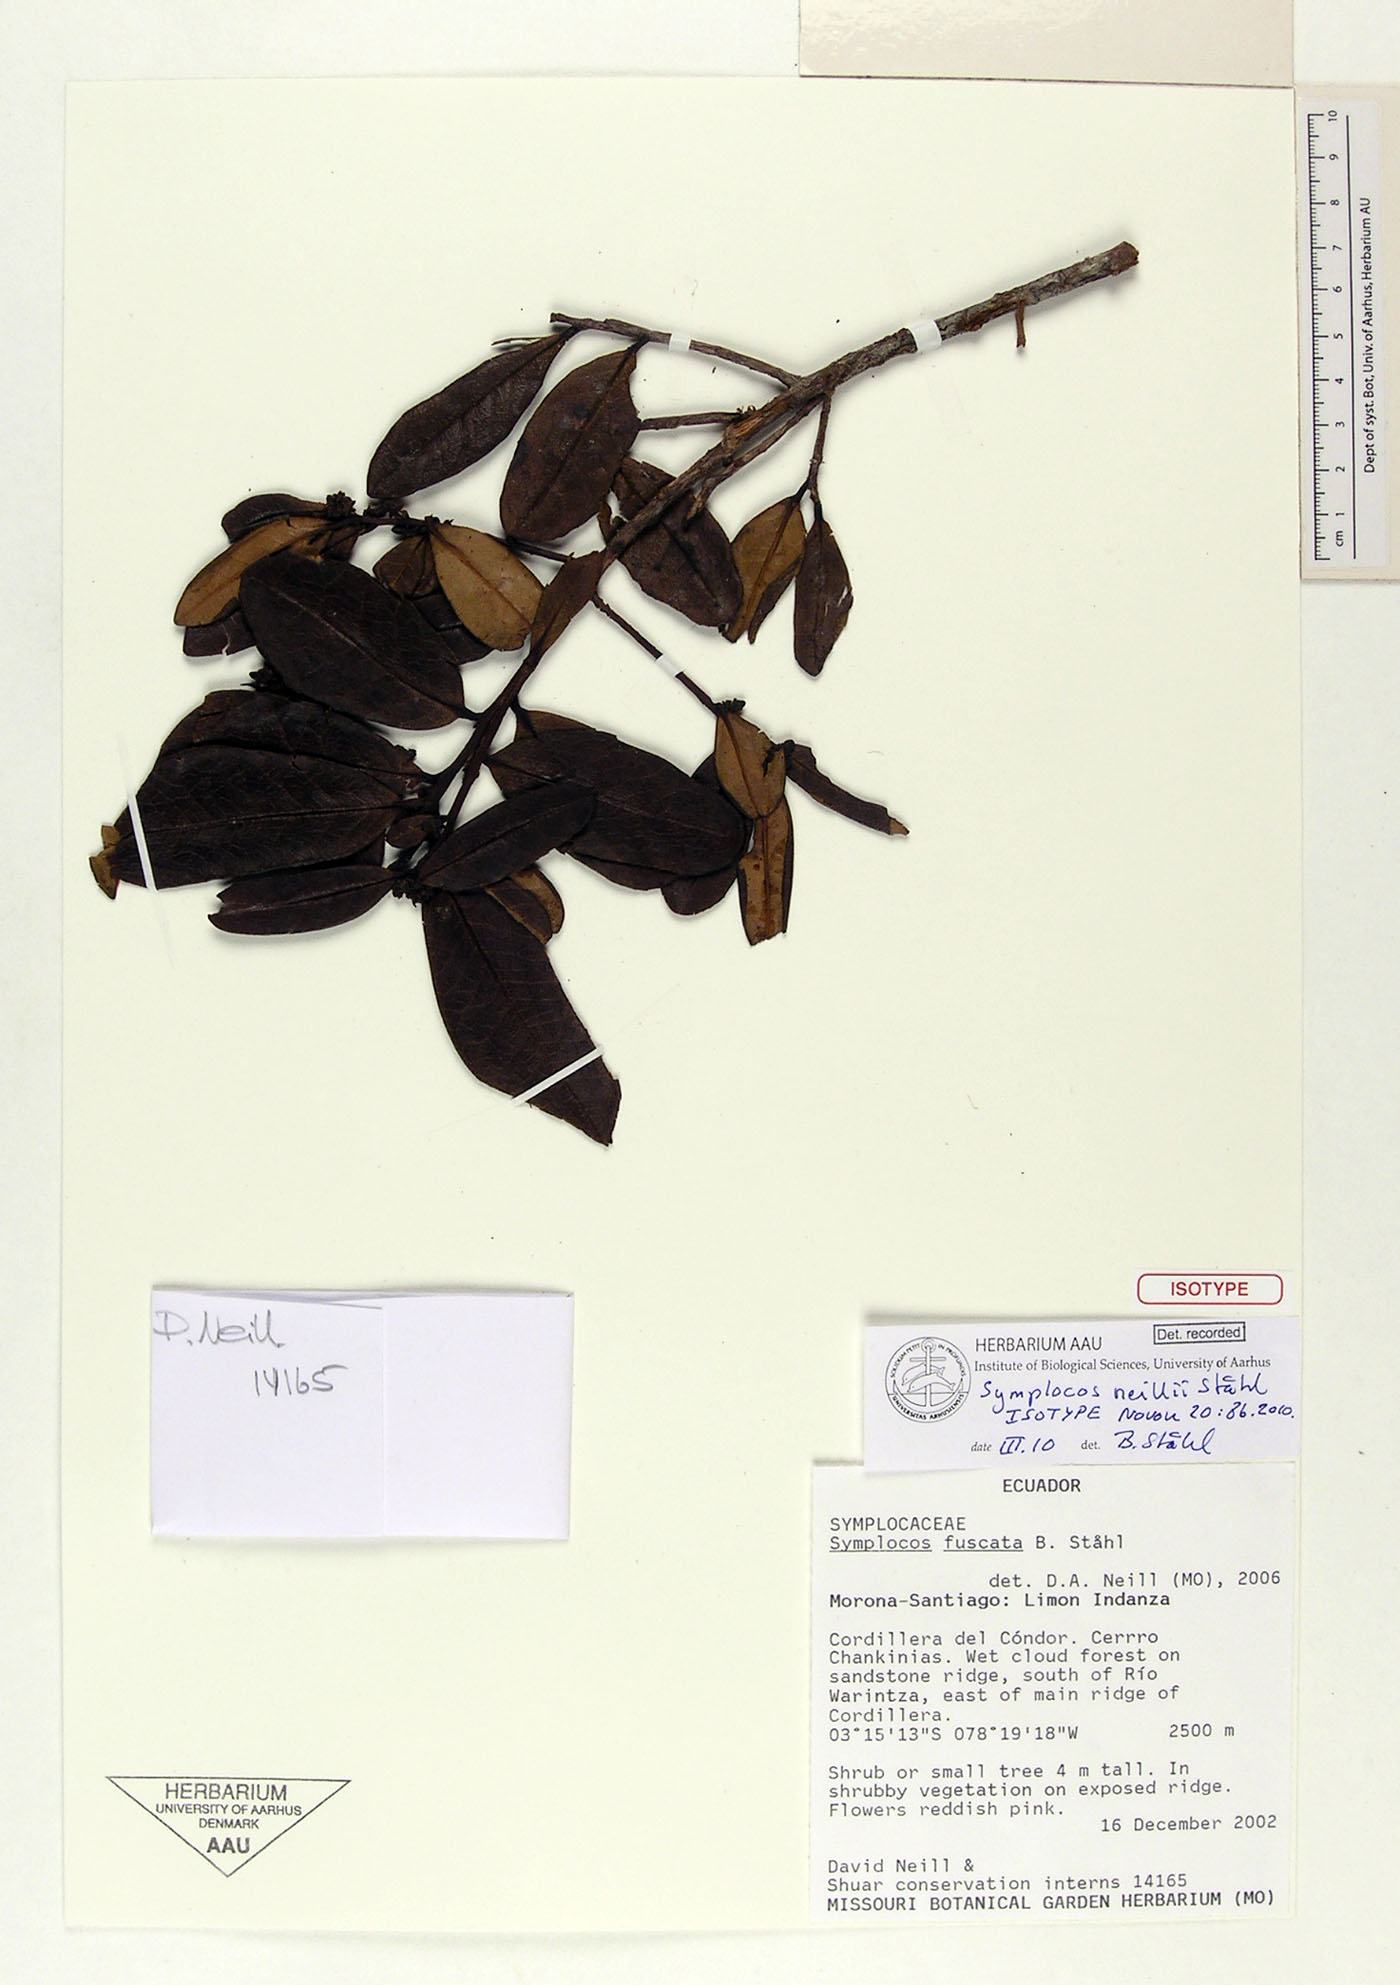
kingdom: Plantae
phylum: Tracheophyta
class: Magnoliopsida
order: Ericales
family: Symplocaceae
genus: Symplocos
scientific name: Symplocos neillii
